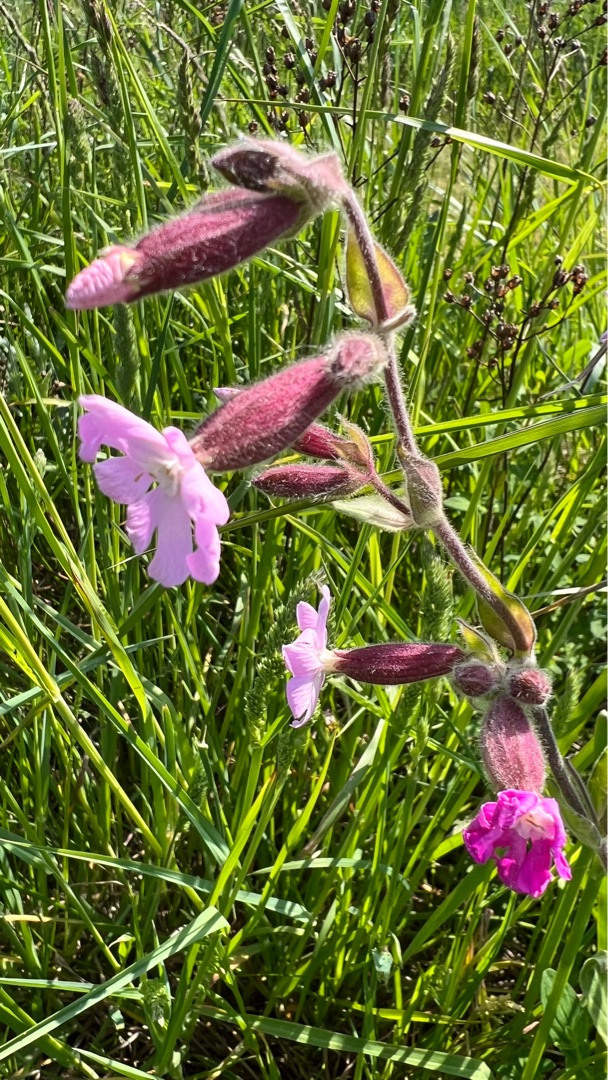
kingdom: Plantae
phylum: Tracheophyta
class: Magnoliopsida
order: Caryophyllales
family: Caryophyllaceae
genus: Silene
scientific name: Silene dioica
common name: Dagpragtstjerne
